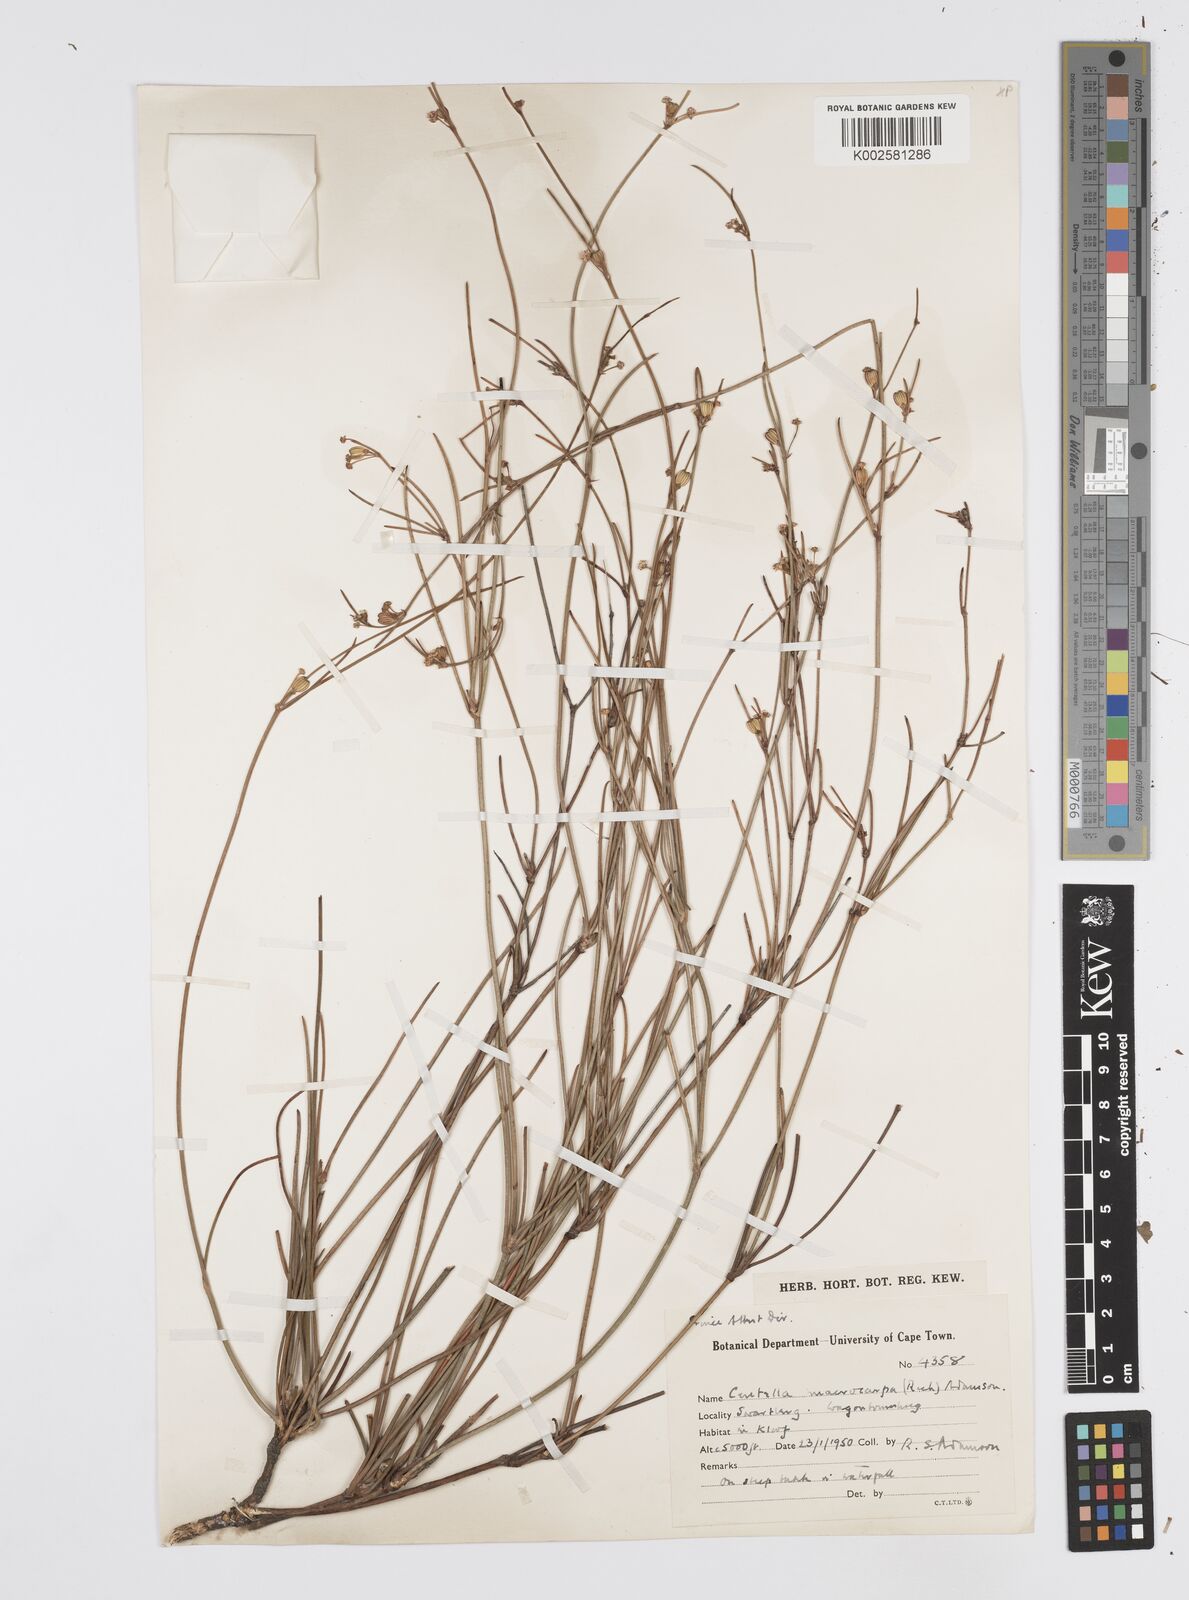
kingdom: Plantae
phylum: Tracheophyta
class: Magnoliopsida
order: Apiales
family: Apiaceae
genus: Centella
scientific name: Centella macrocarpa
